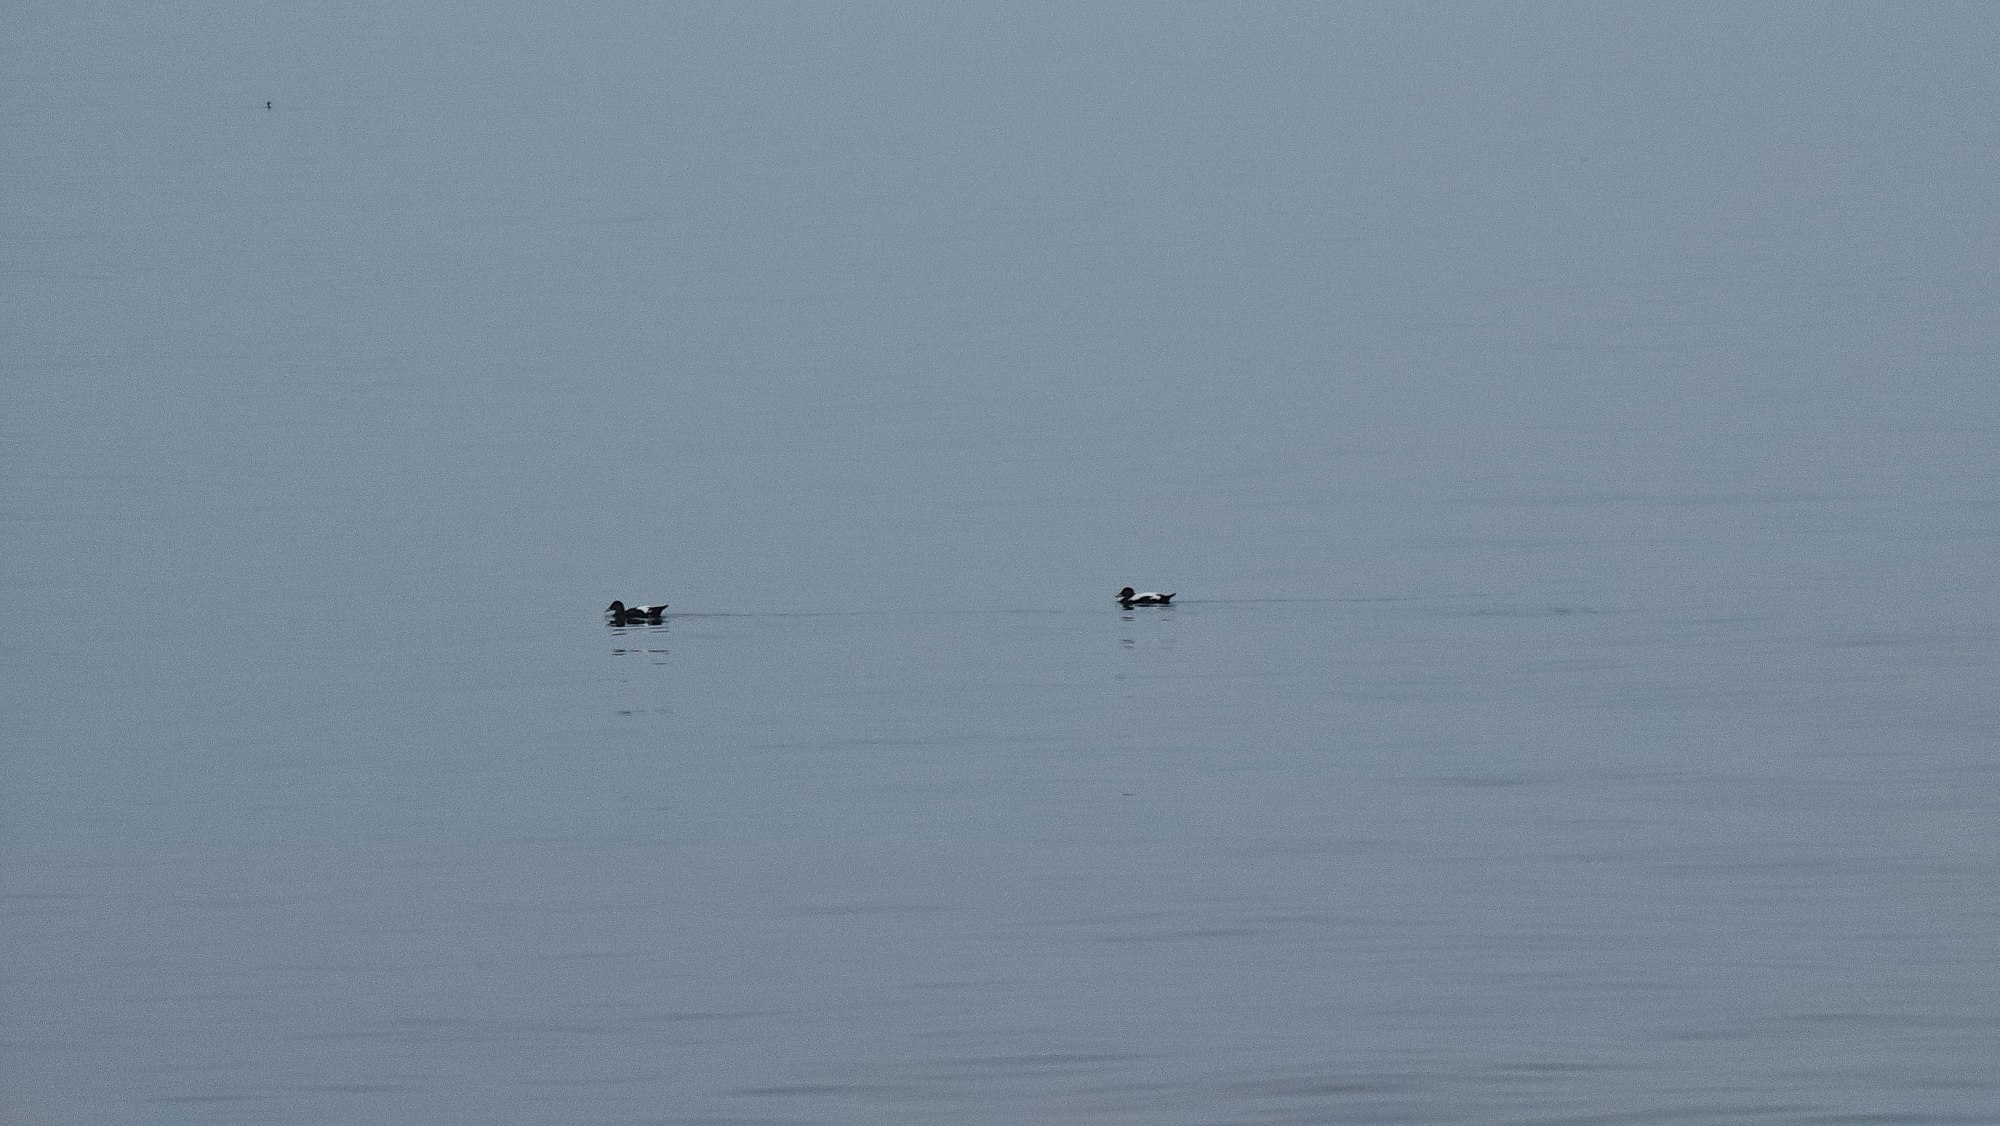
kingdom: Animalia
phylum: Chordata
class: Aves
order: Anseriformes
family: Anatidae
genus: Somateria
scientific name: Somateria mollissima
